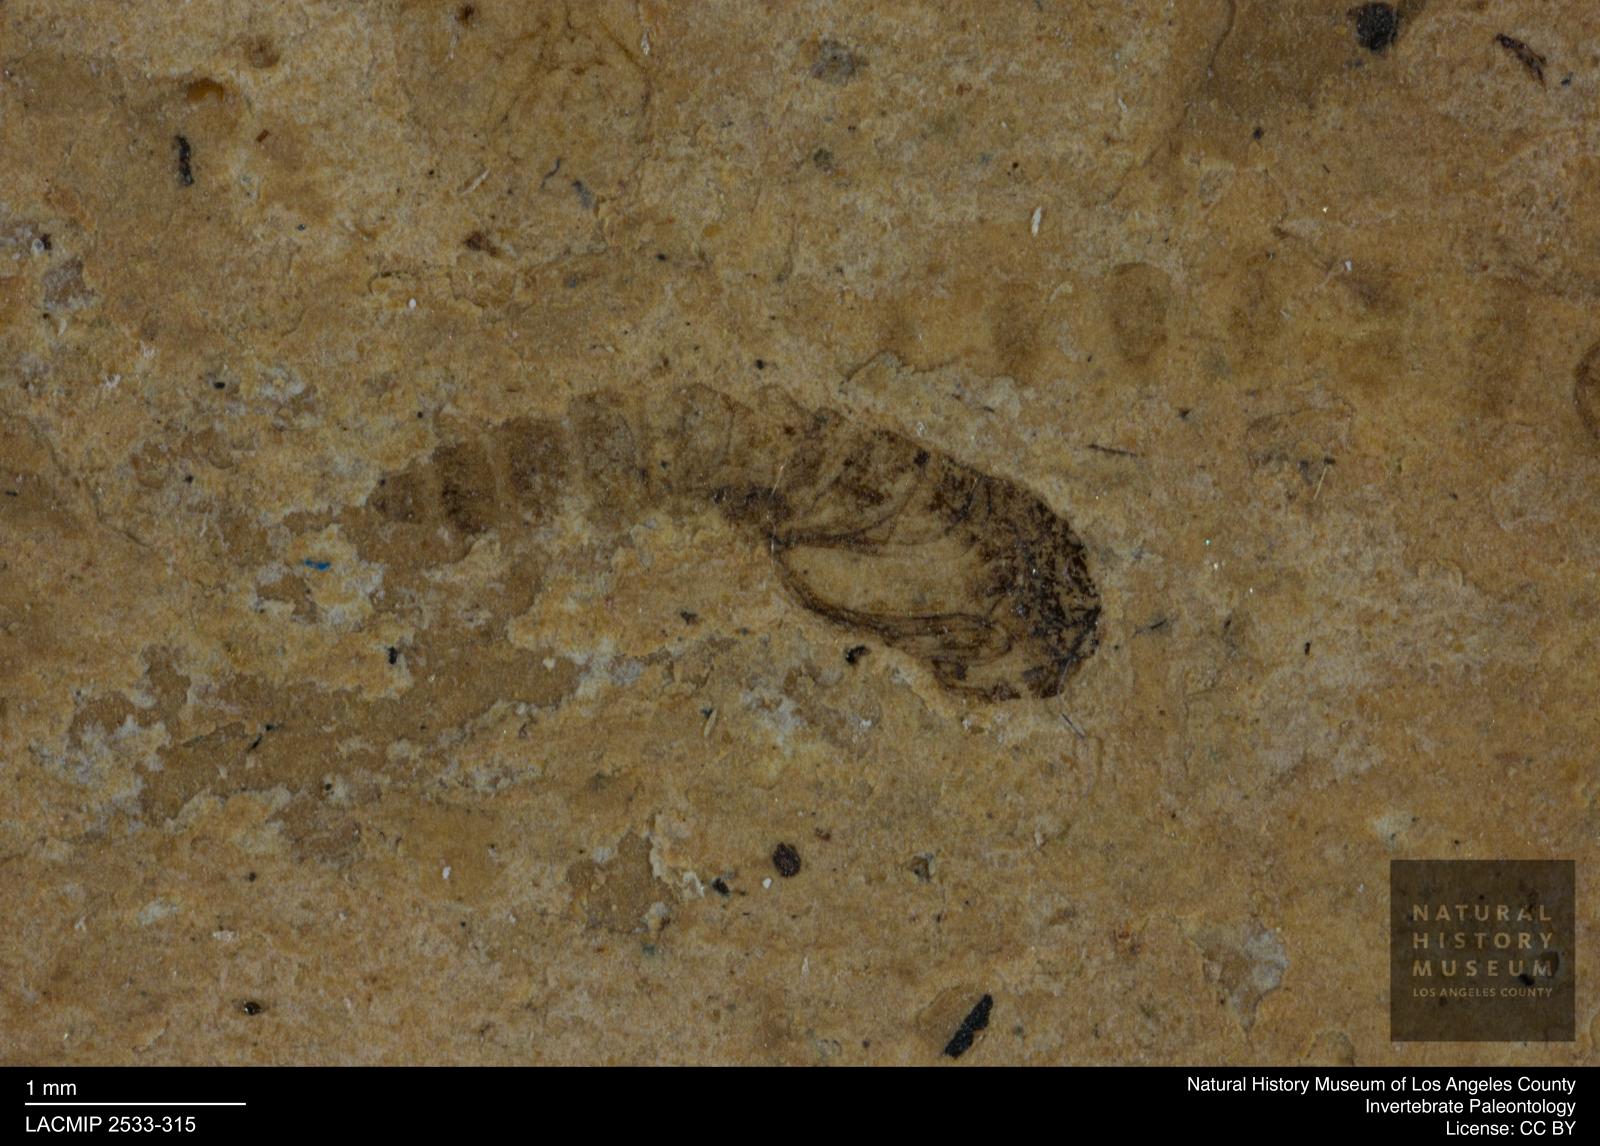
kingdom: Animalia
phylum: Arthropoda
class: Insecta
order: Diptera
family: Ceratopogonidae
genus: Ceratopogon
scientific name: Ceratopogon
